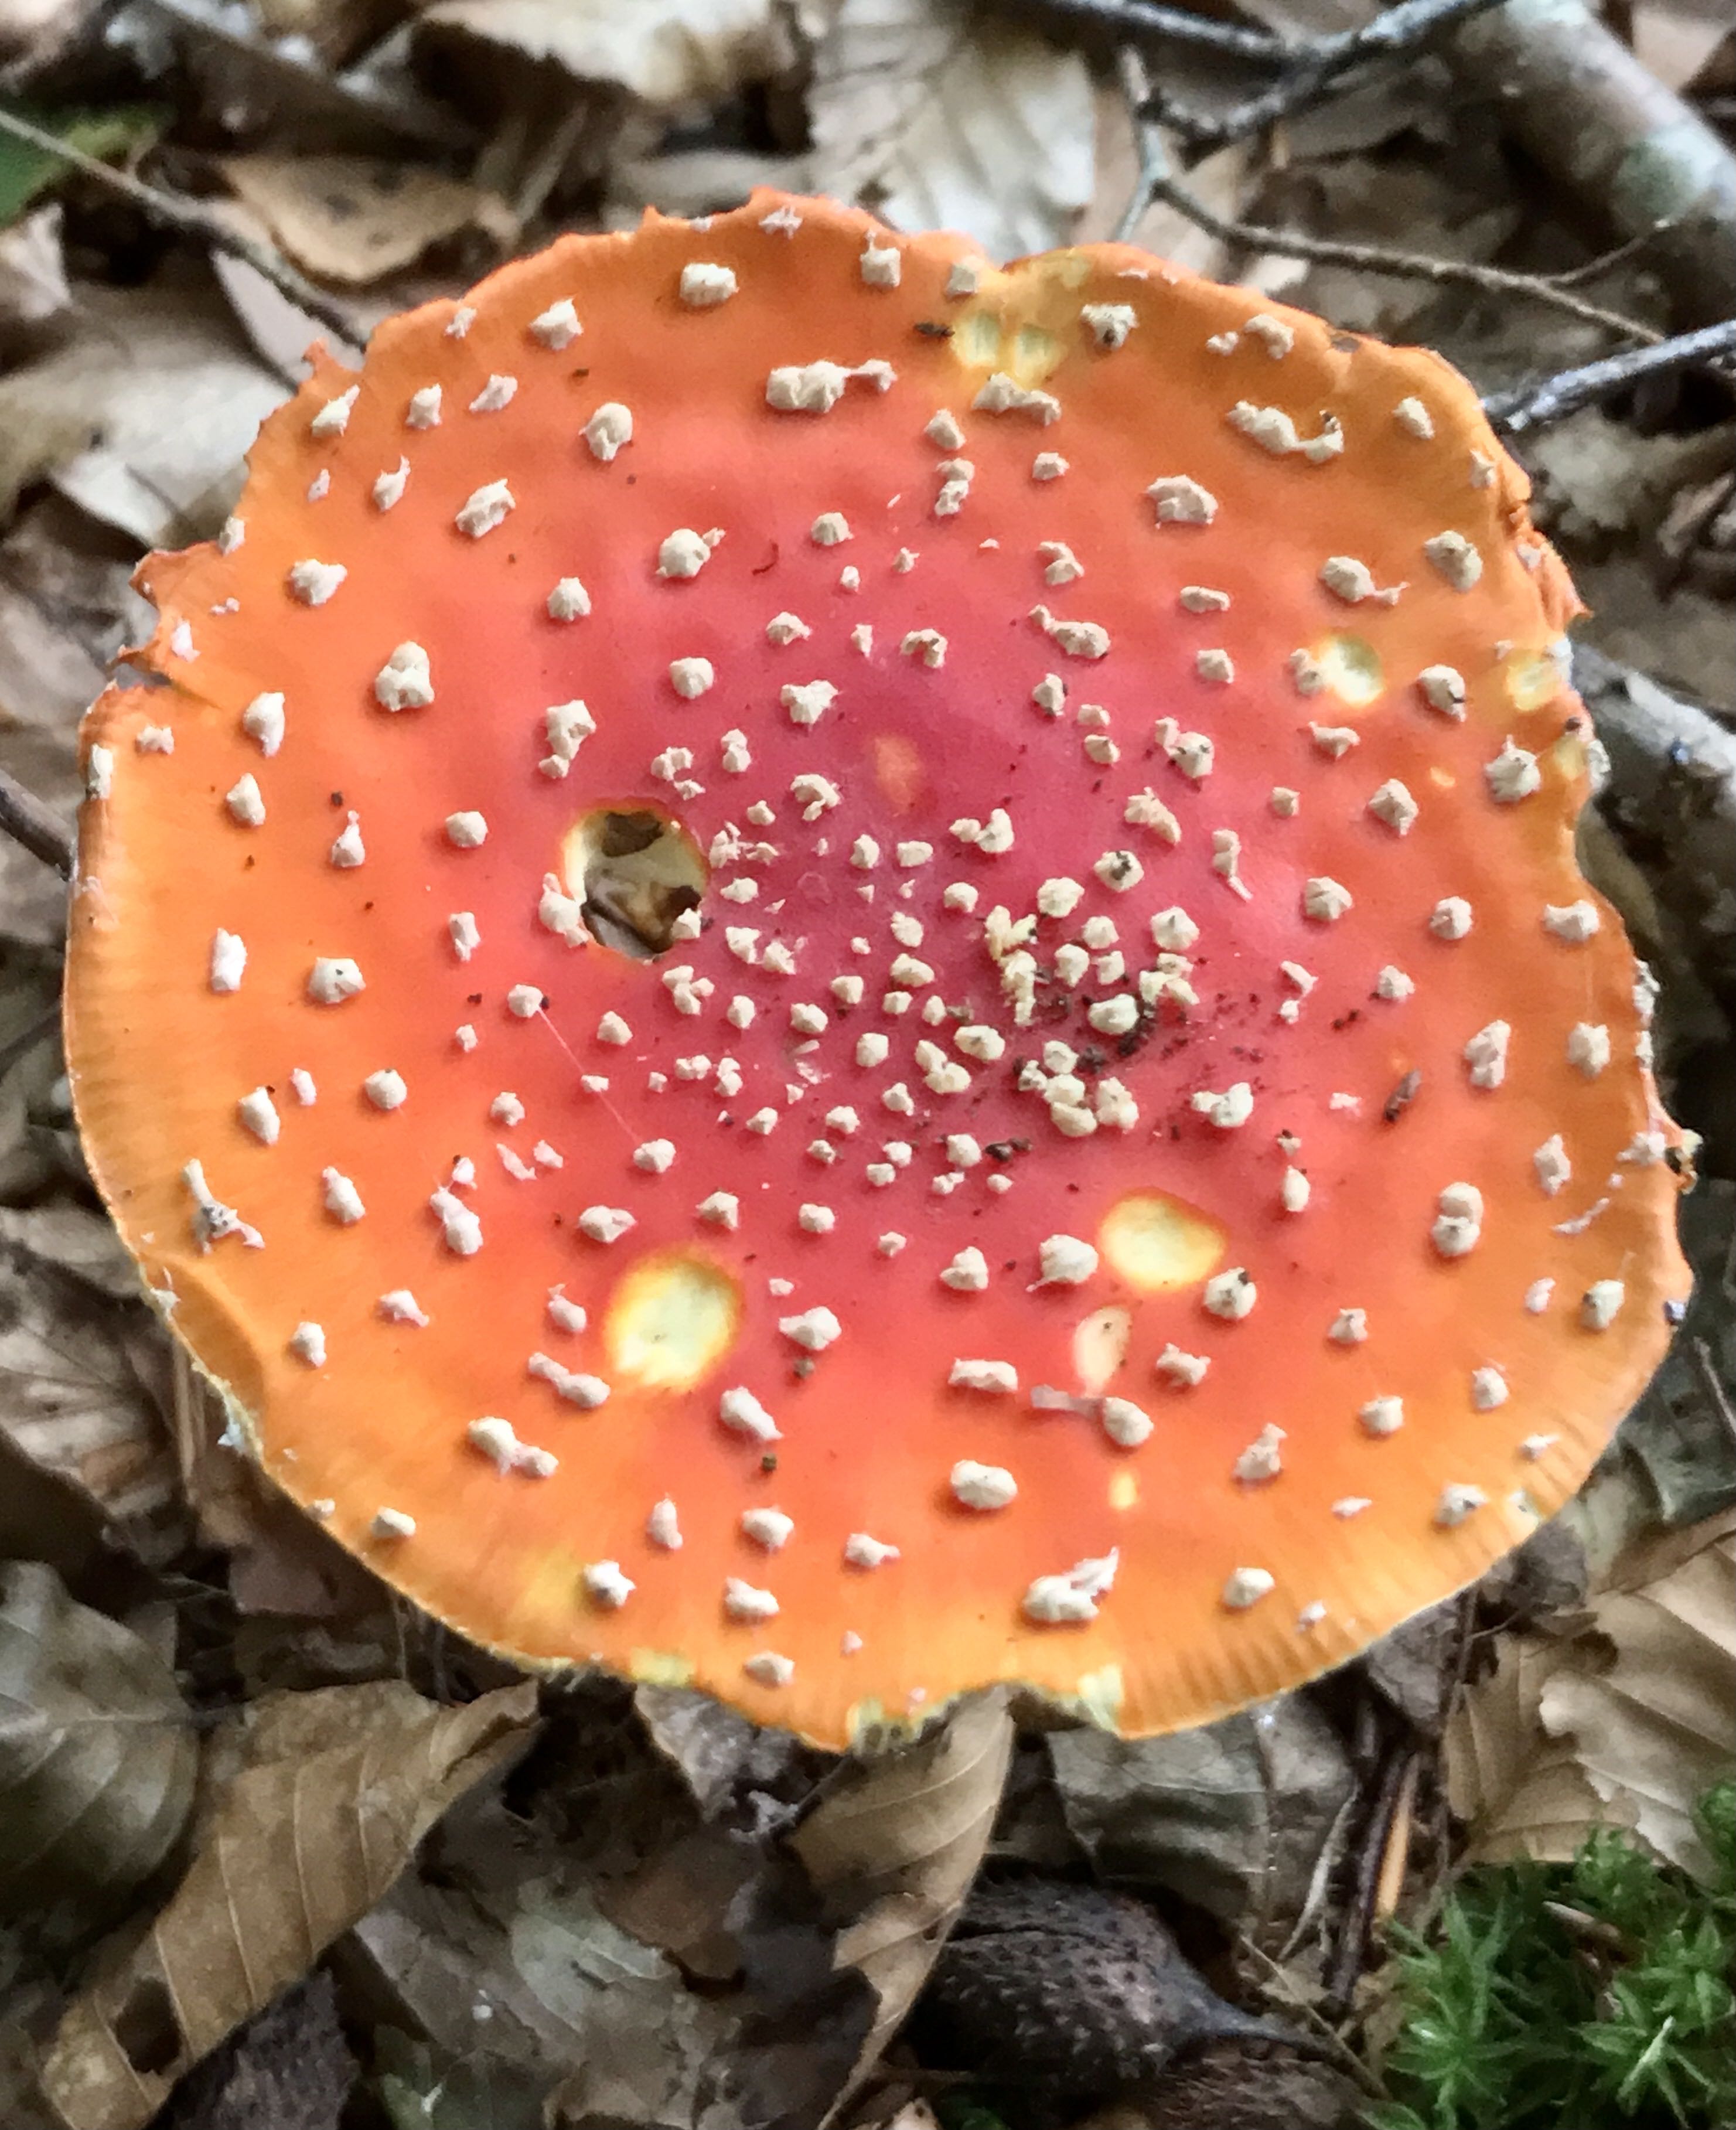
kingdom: Fungi
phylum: Basidiomycota
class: Agaricomycetes
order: Agaricales
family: Amanitaceae
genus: Amanita
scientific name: Amanita muscaria
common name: rød fluesvamp
